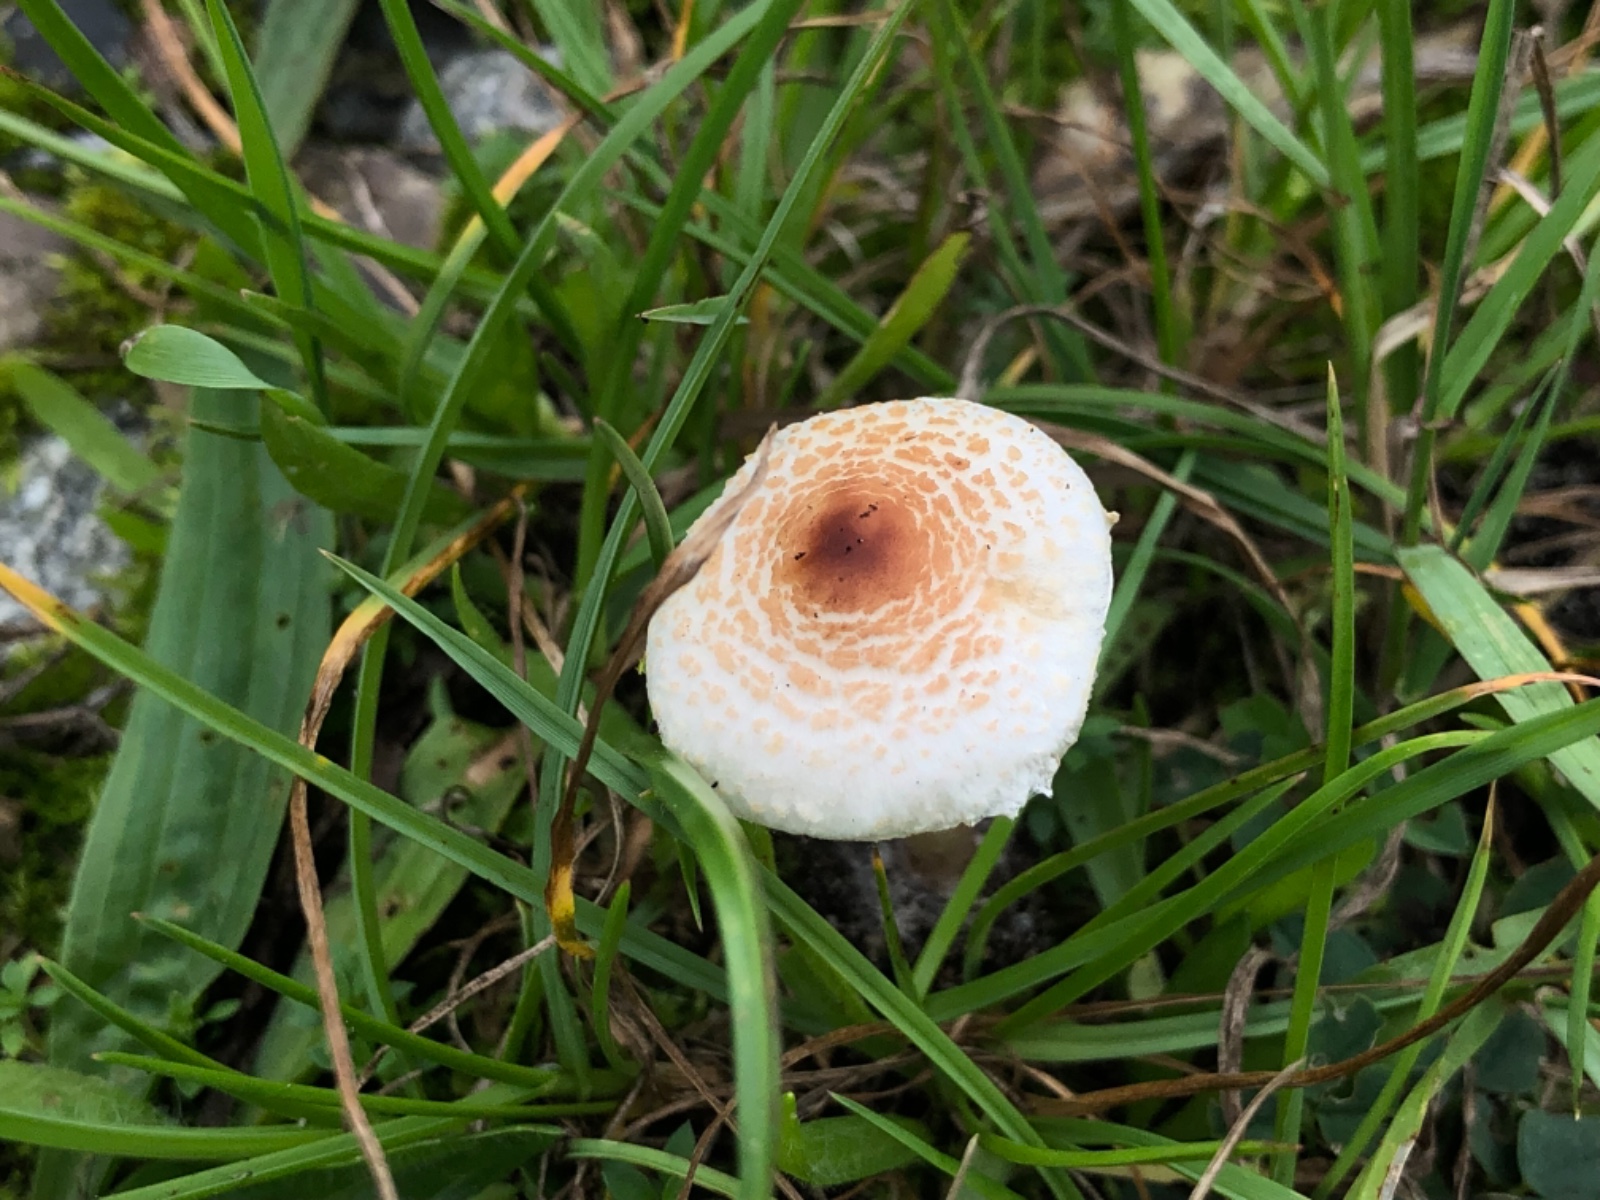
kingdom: Fungi
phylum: Basidiomycota
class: Agaricomycetes
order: Agaricales
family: Agaricaceae
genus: Lepiota
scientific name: Lepiota cristata
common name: stinkende parasolhat
